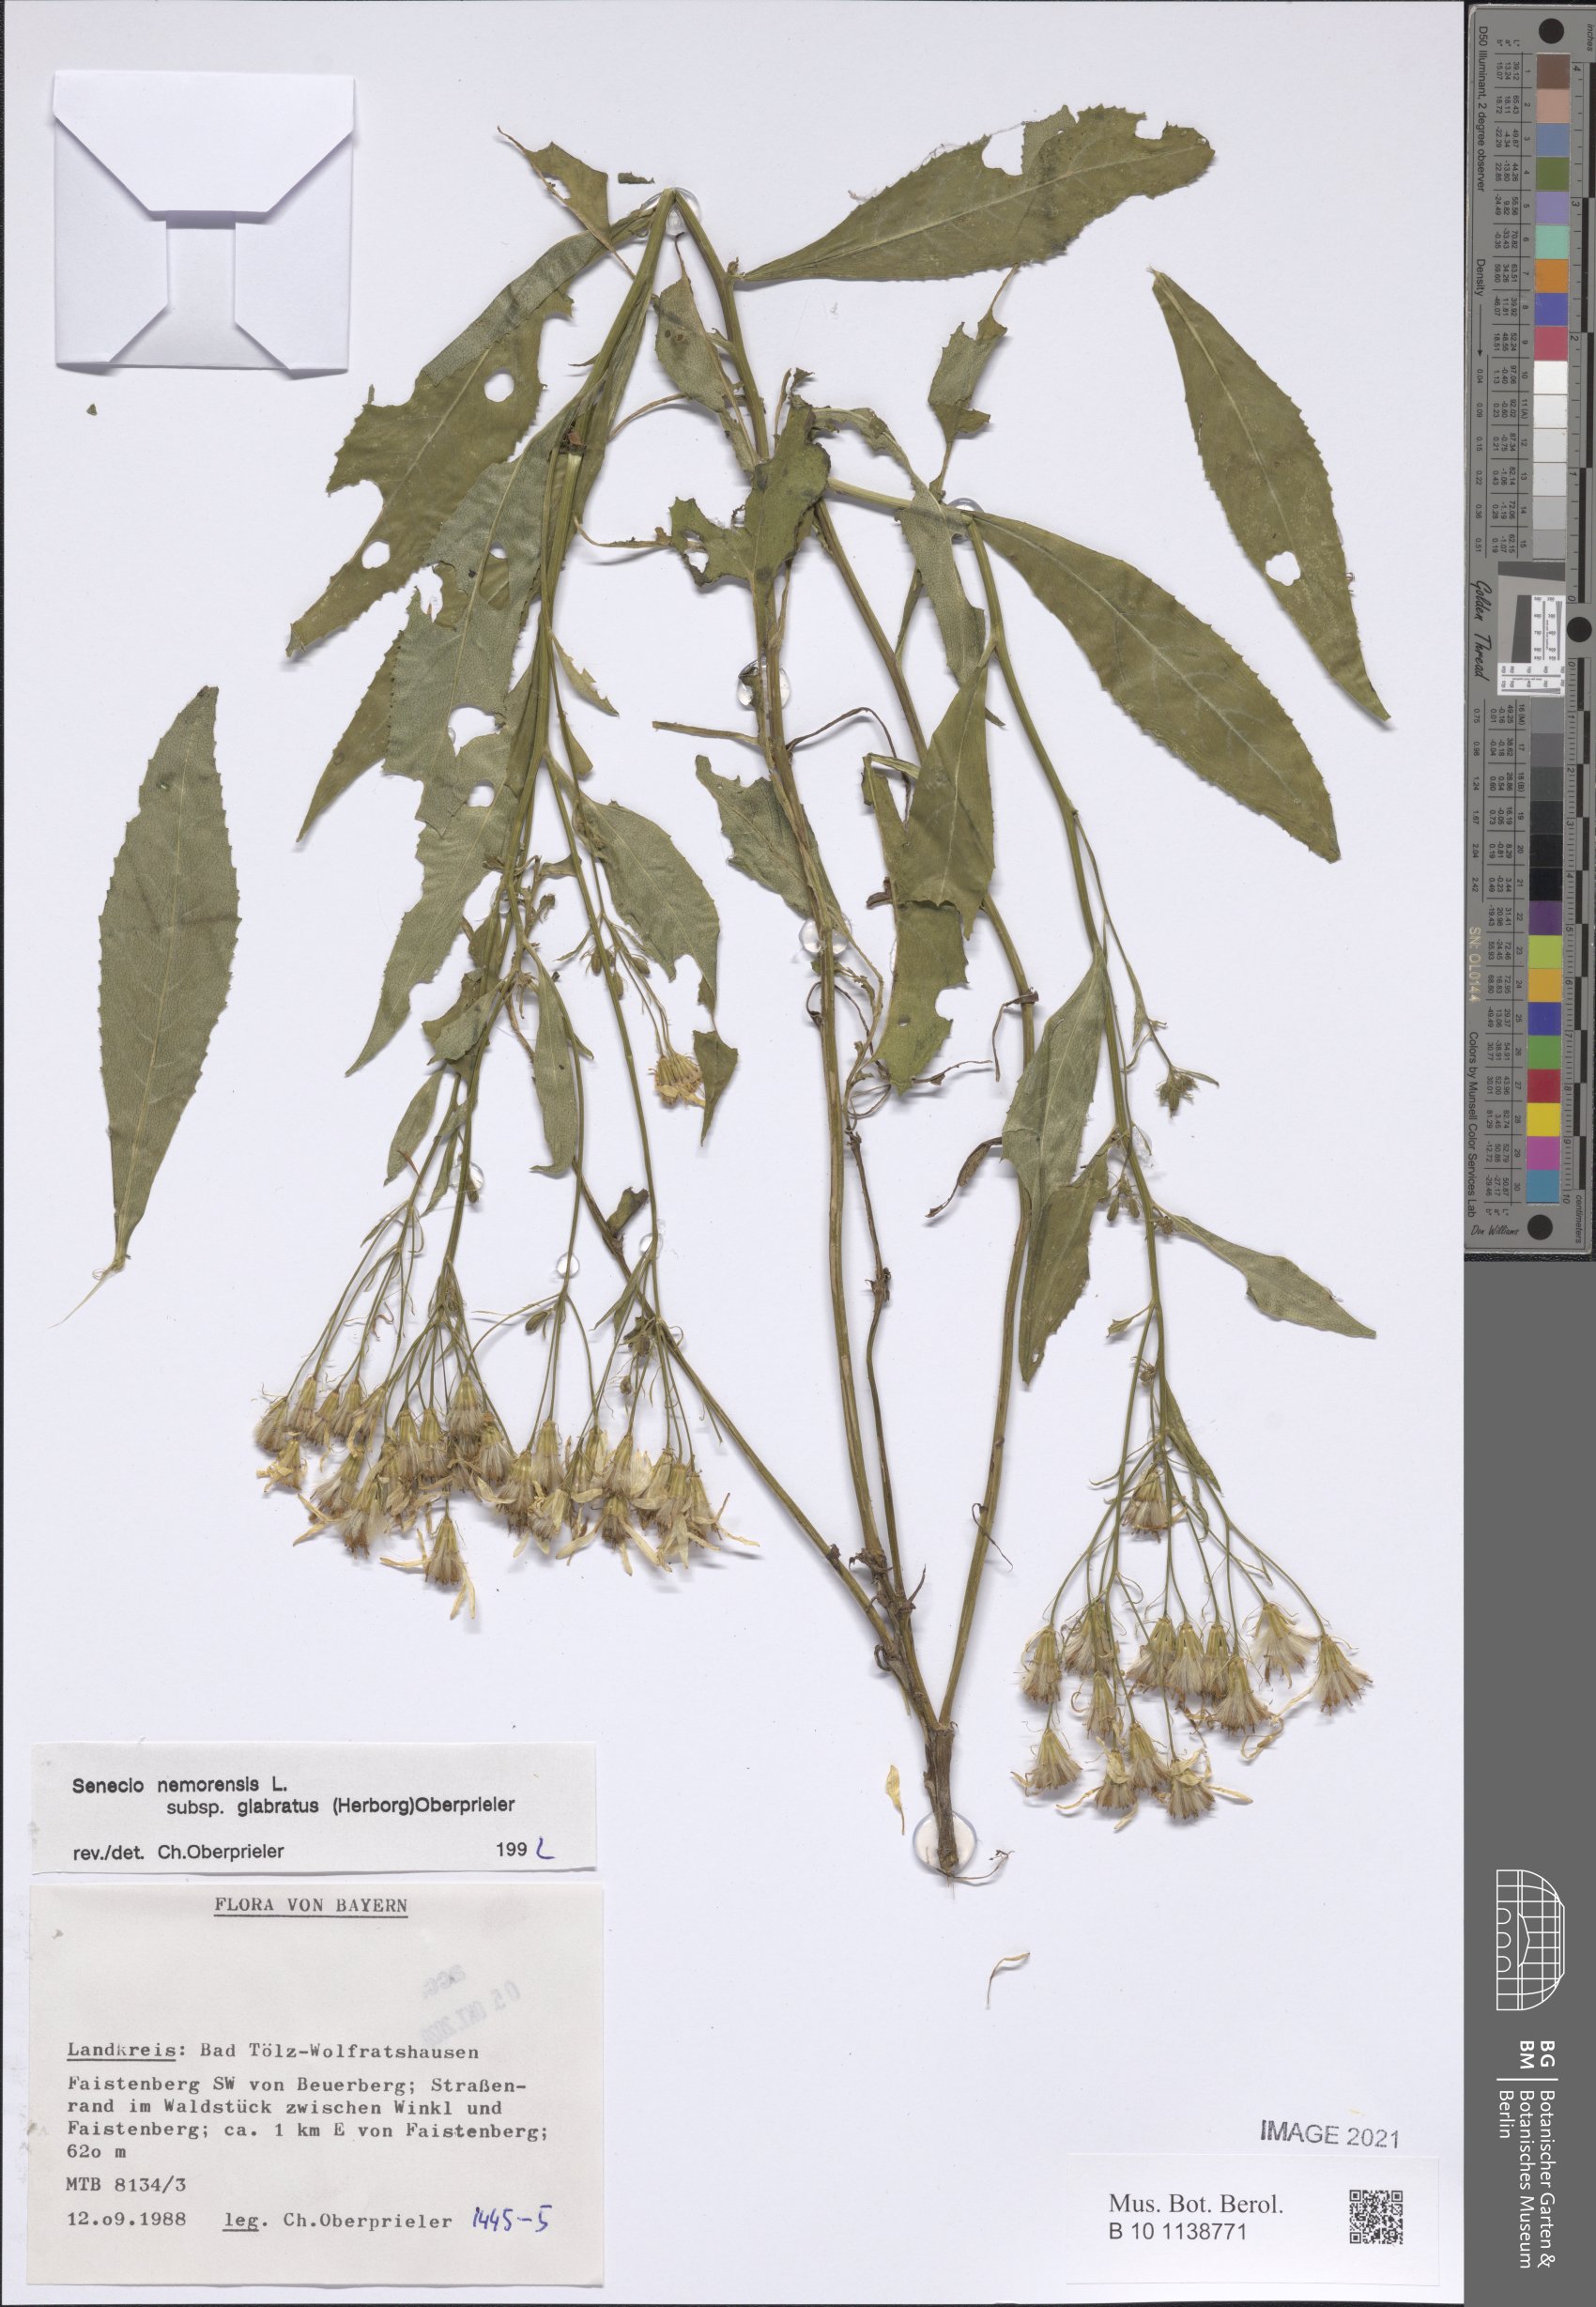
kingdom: Plantae
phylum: Tracheophyta
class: Magnoliopsida
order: Asterales
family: Asteraceae
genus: Senecio
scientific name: Senecio germanicus
